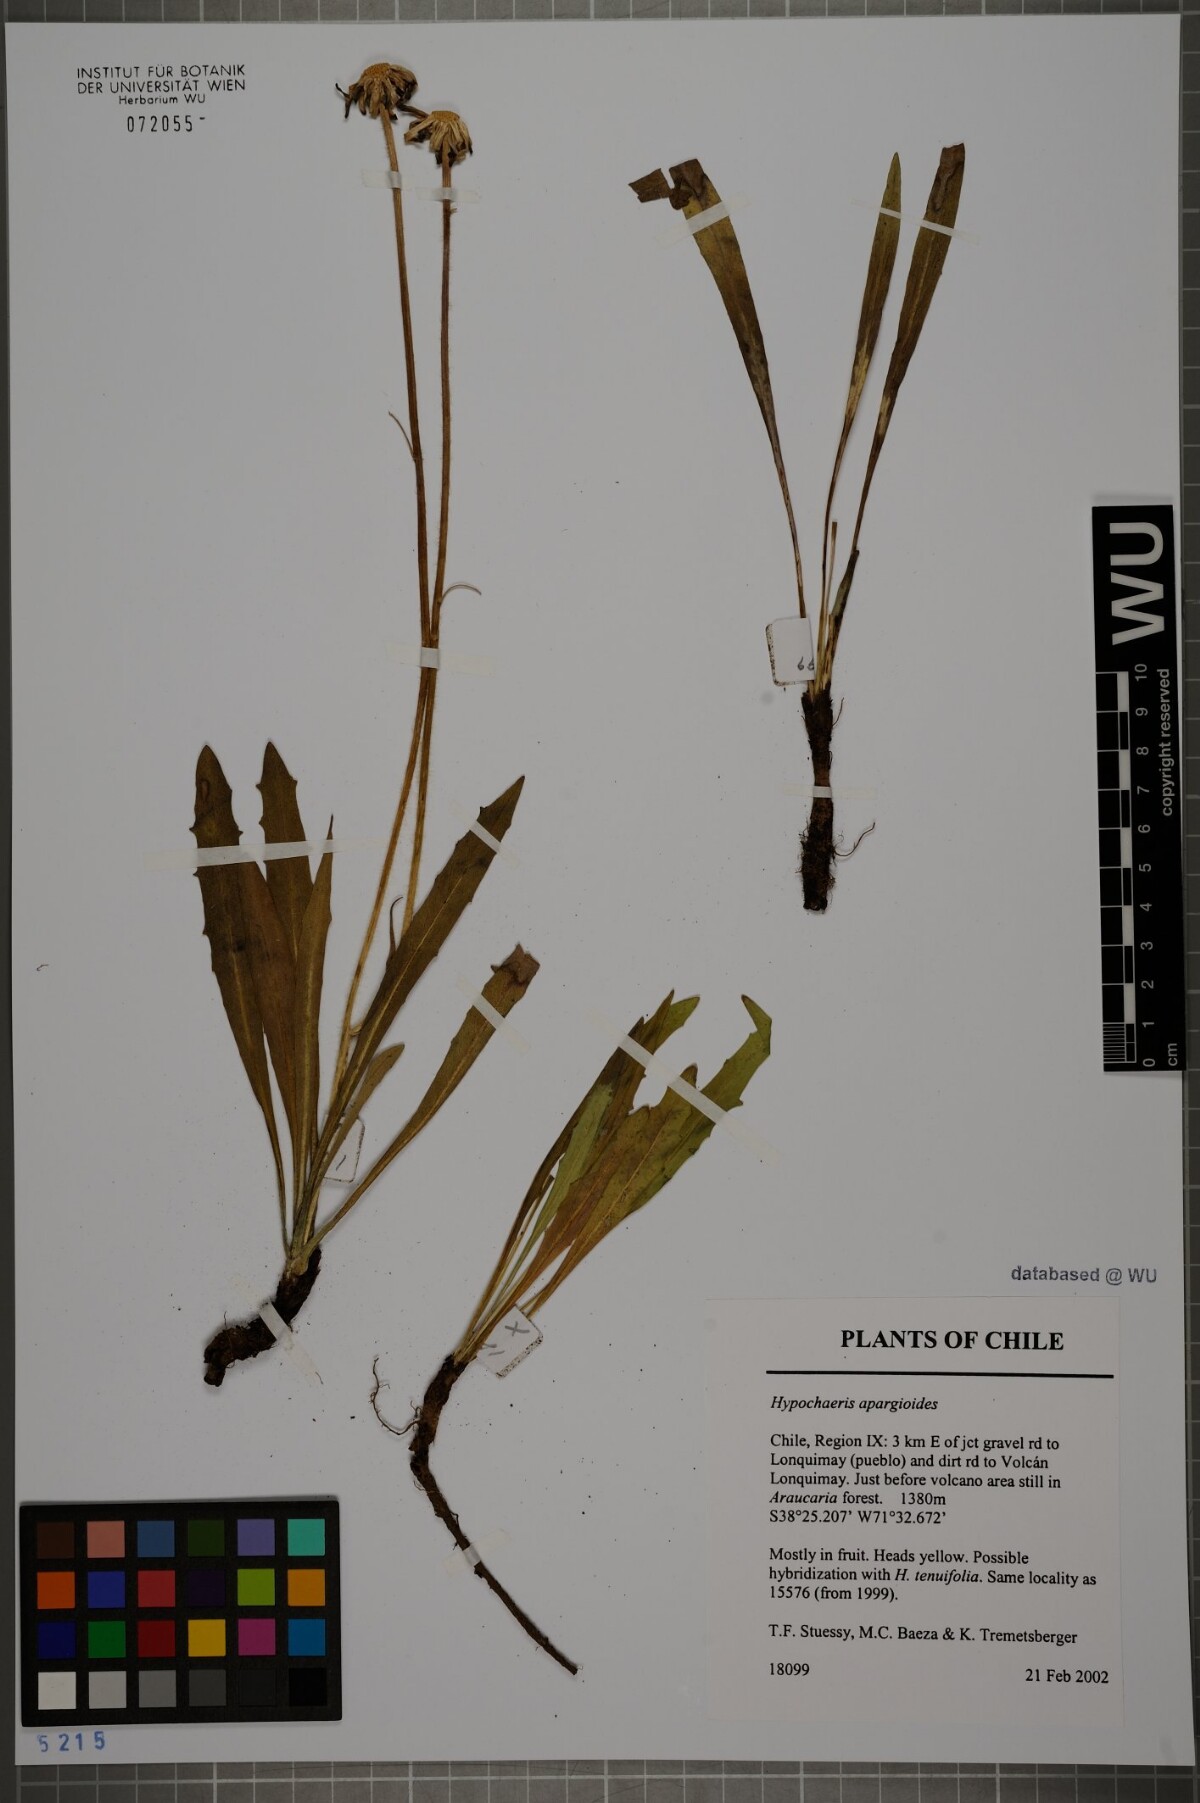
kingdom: Plantae
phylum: Tracheophyta
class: Magnoliopsida
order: Asterales
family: Asteraceae
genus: Hypochaeris
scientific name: Hypochaeris apargioides
